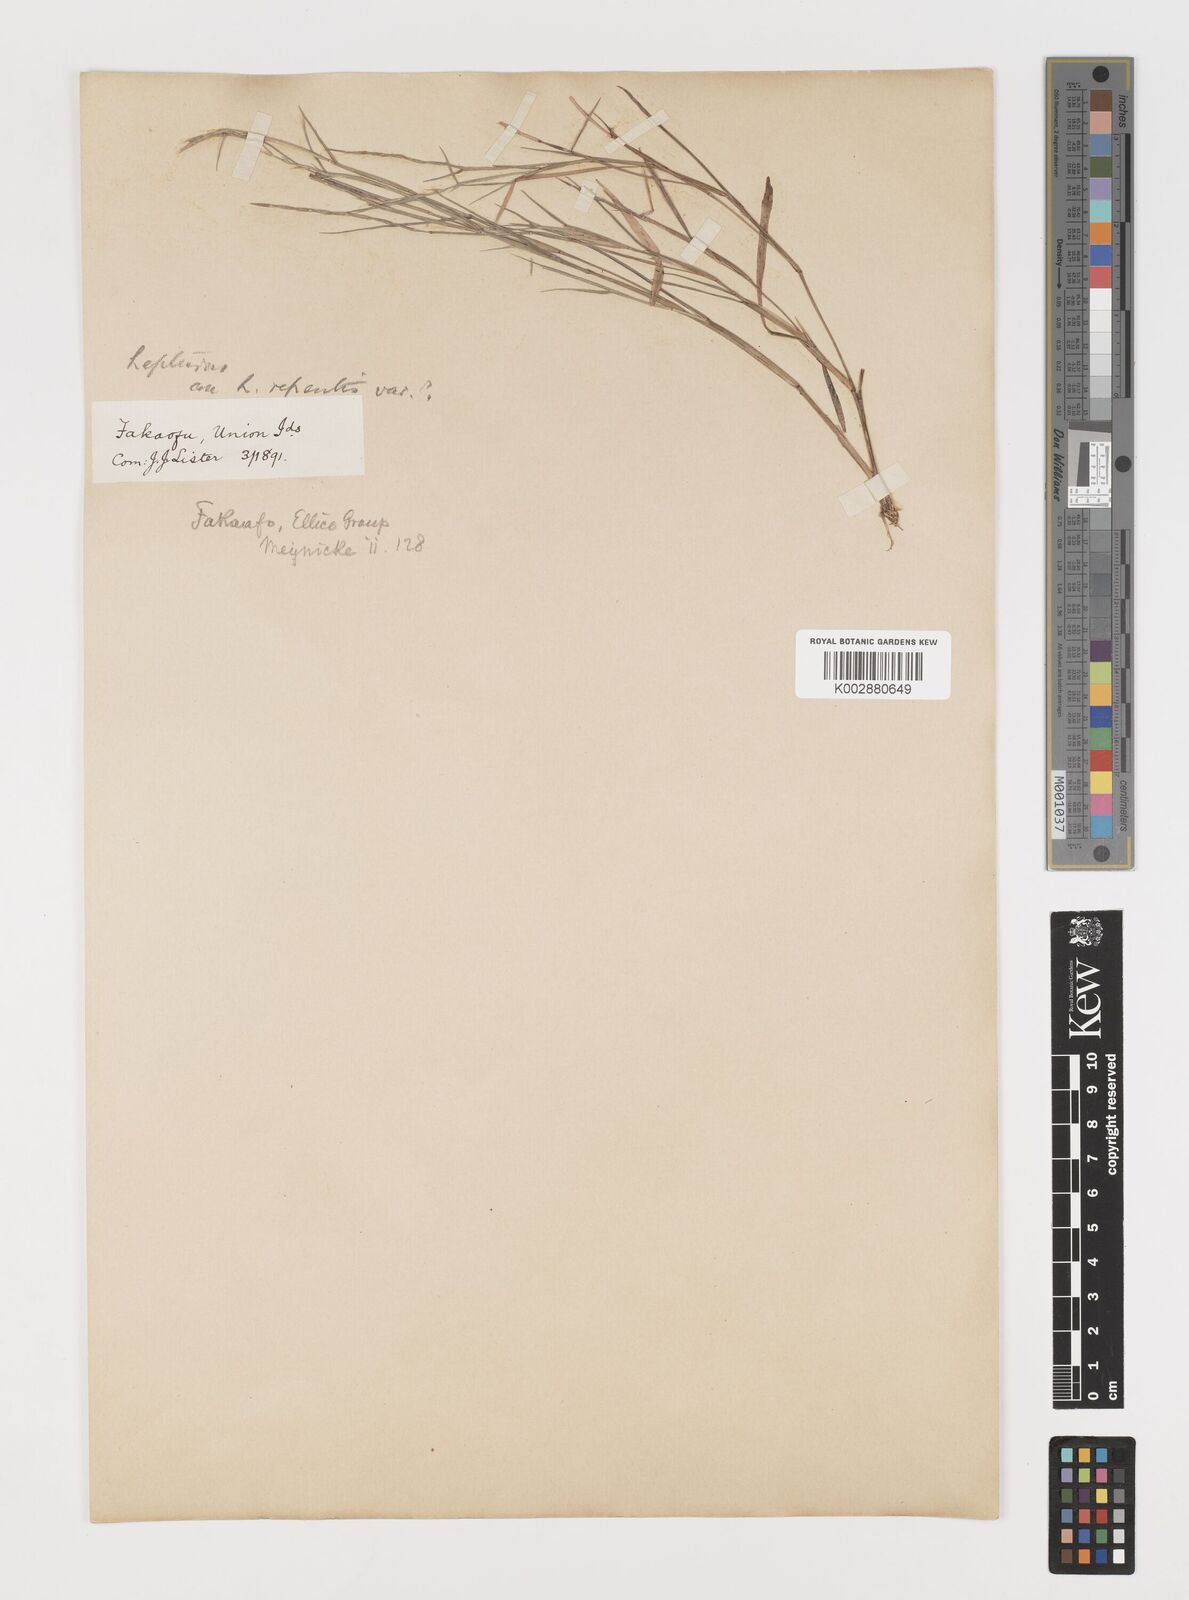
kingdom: Plantae
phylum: Tracheophyta
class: Liliopsida
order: Poales
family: Poaceae
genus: Lepturus
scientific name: Lepturus
